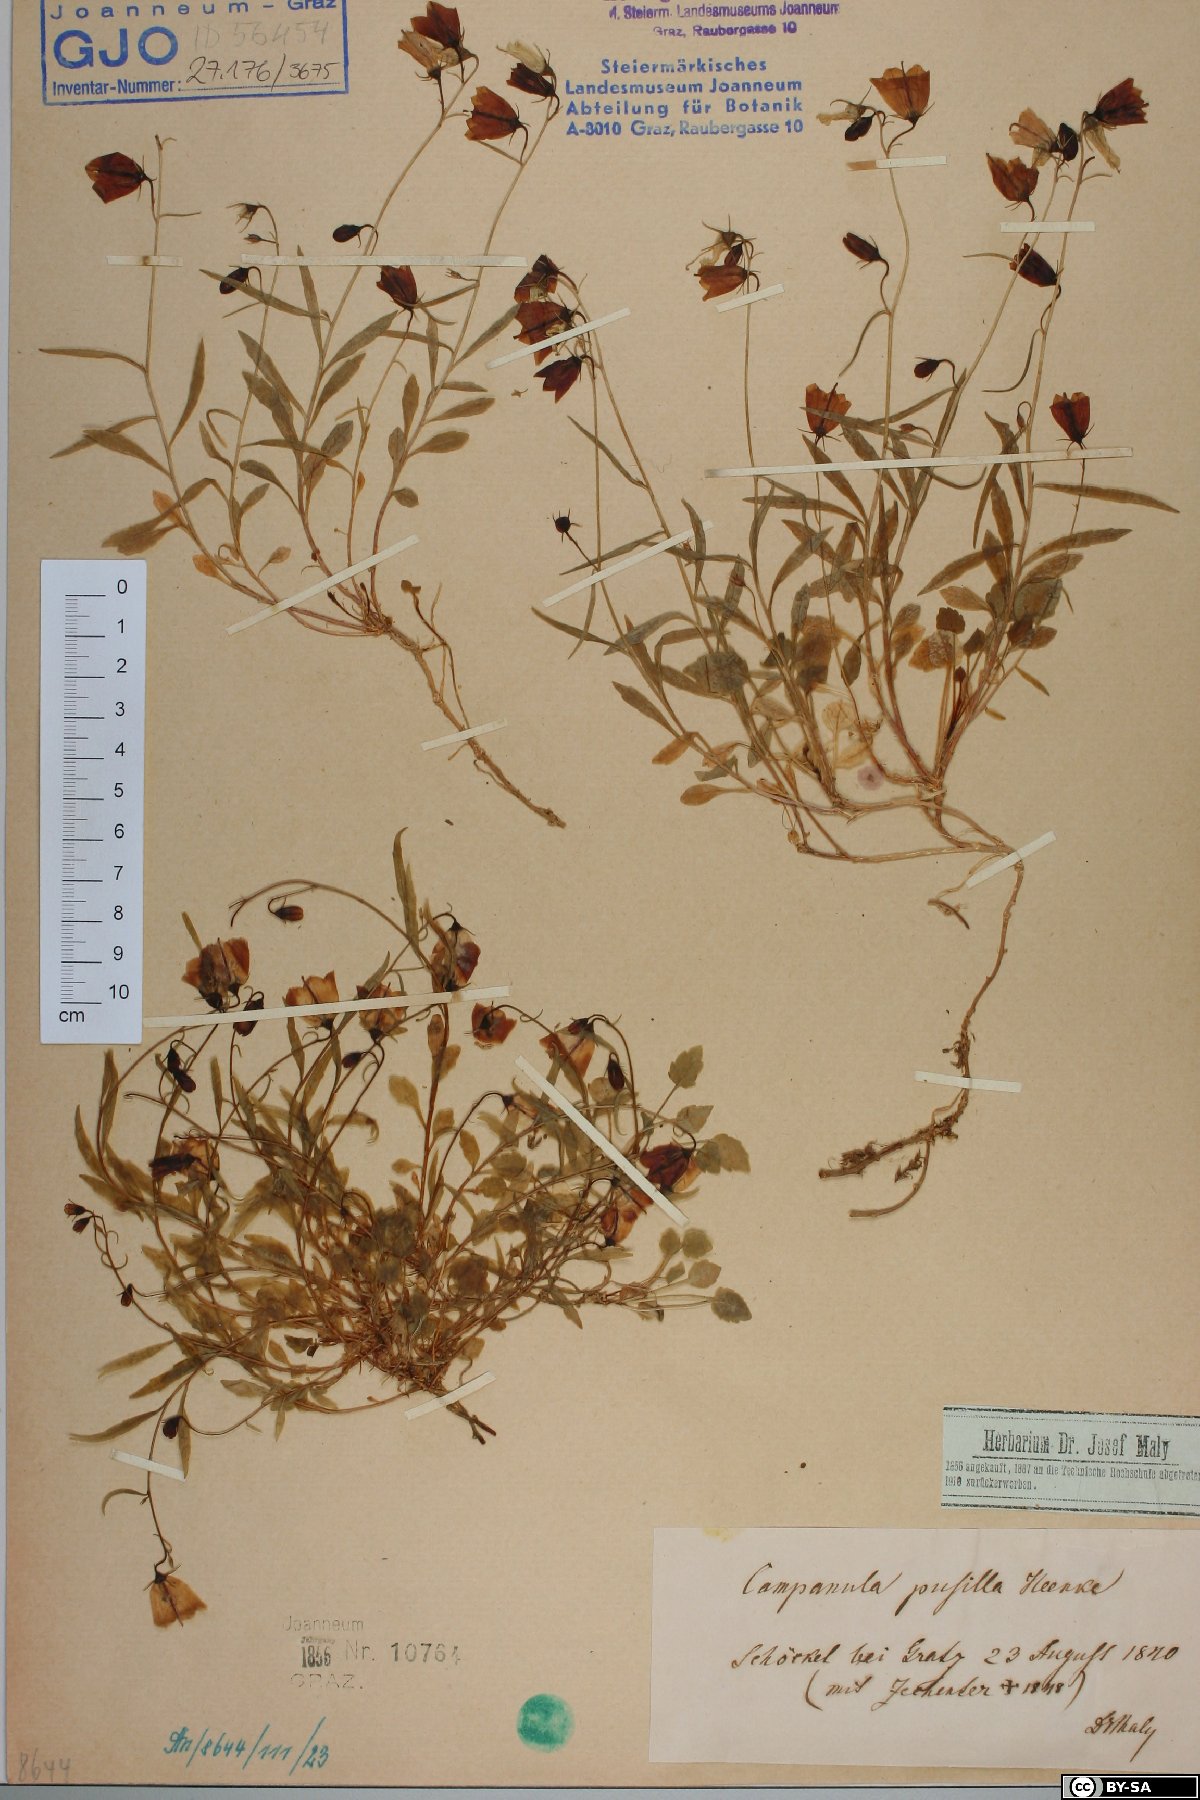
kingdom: Plantae
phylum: Tracheophyta
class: Magnoliopsida
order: Asterales
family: Campanulaceae
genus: Campanula
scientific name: Campanula cochleariifolia
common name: Fairies'-thimbles
